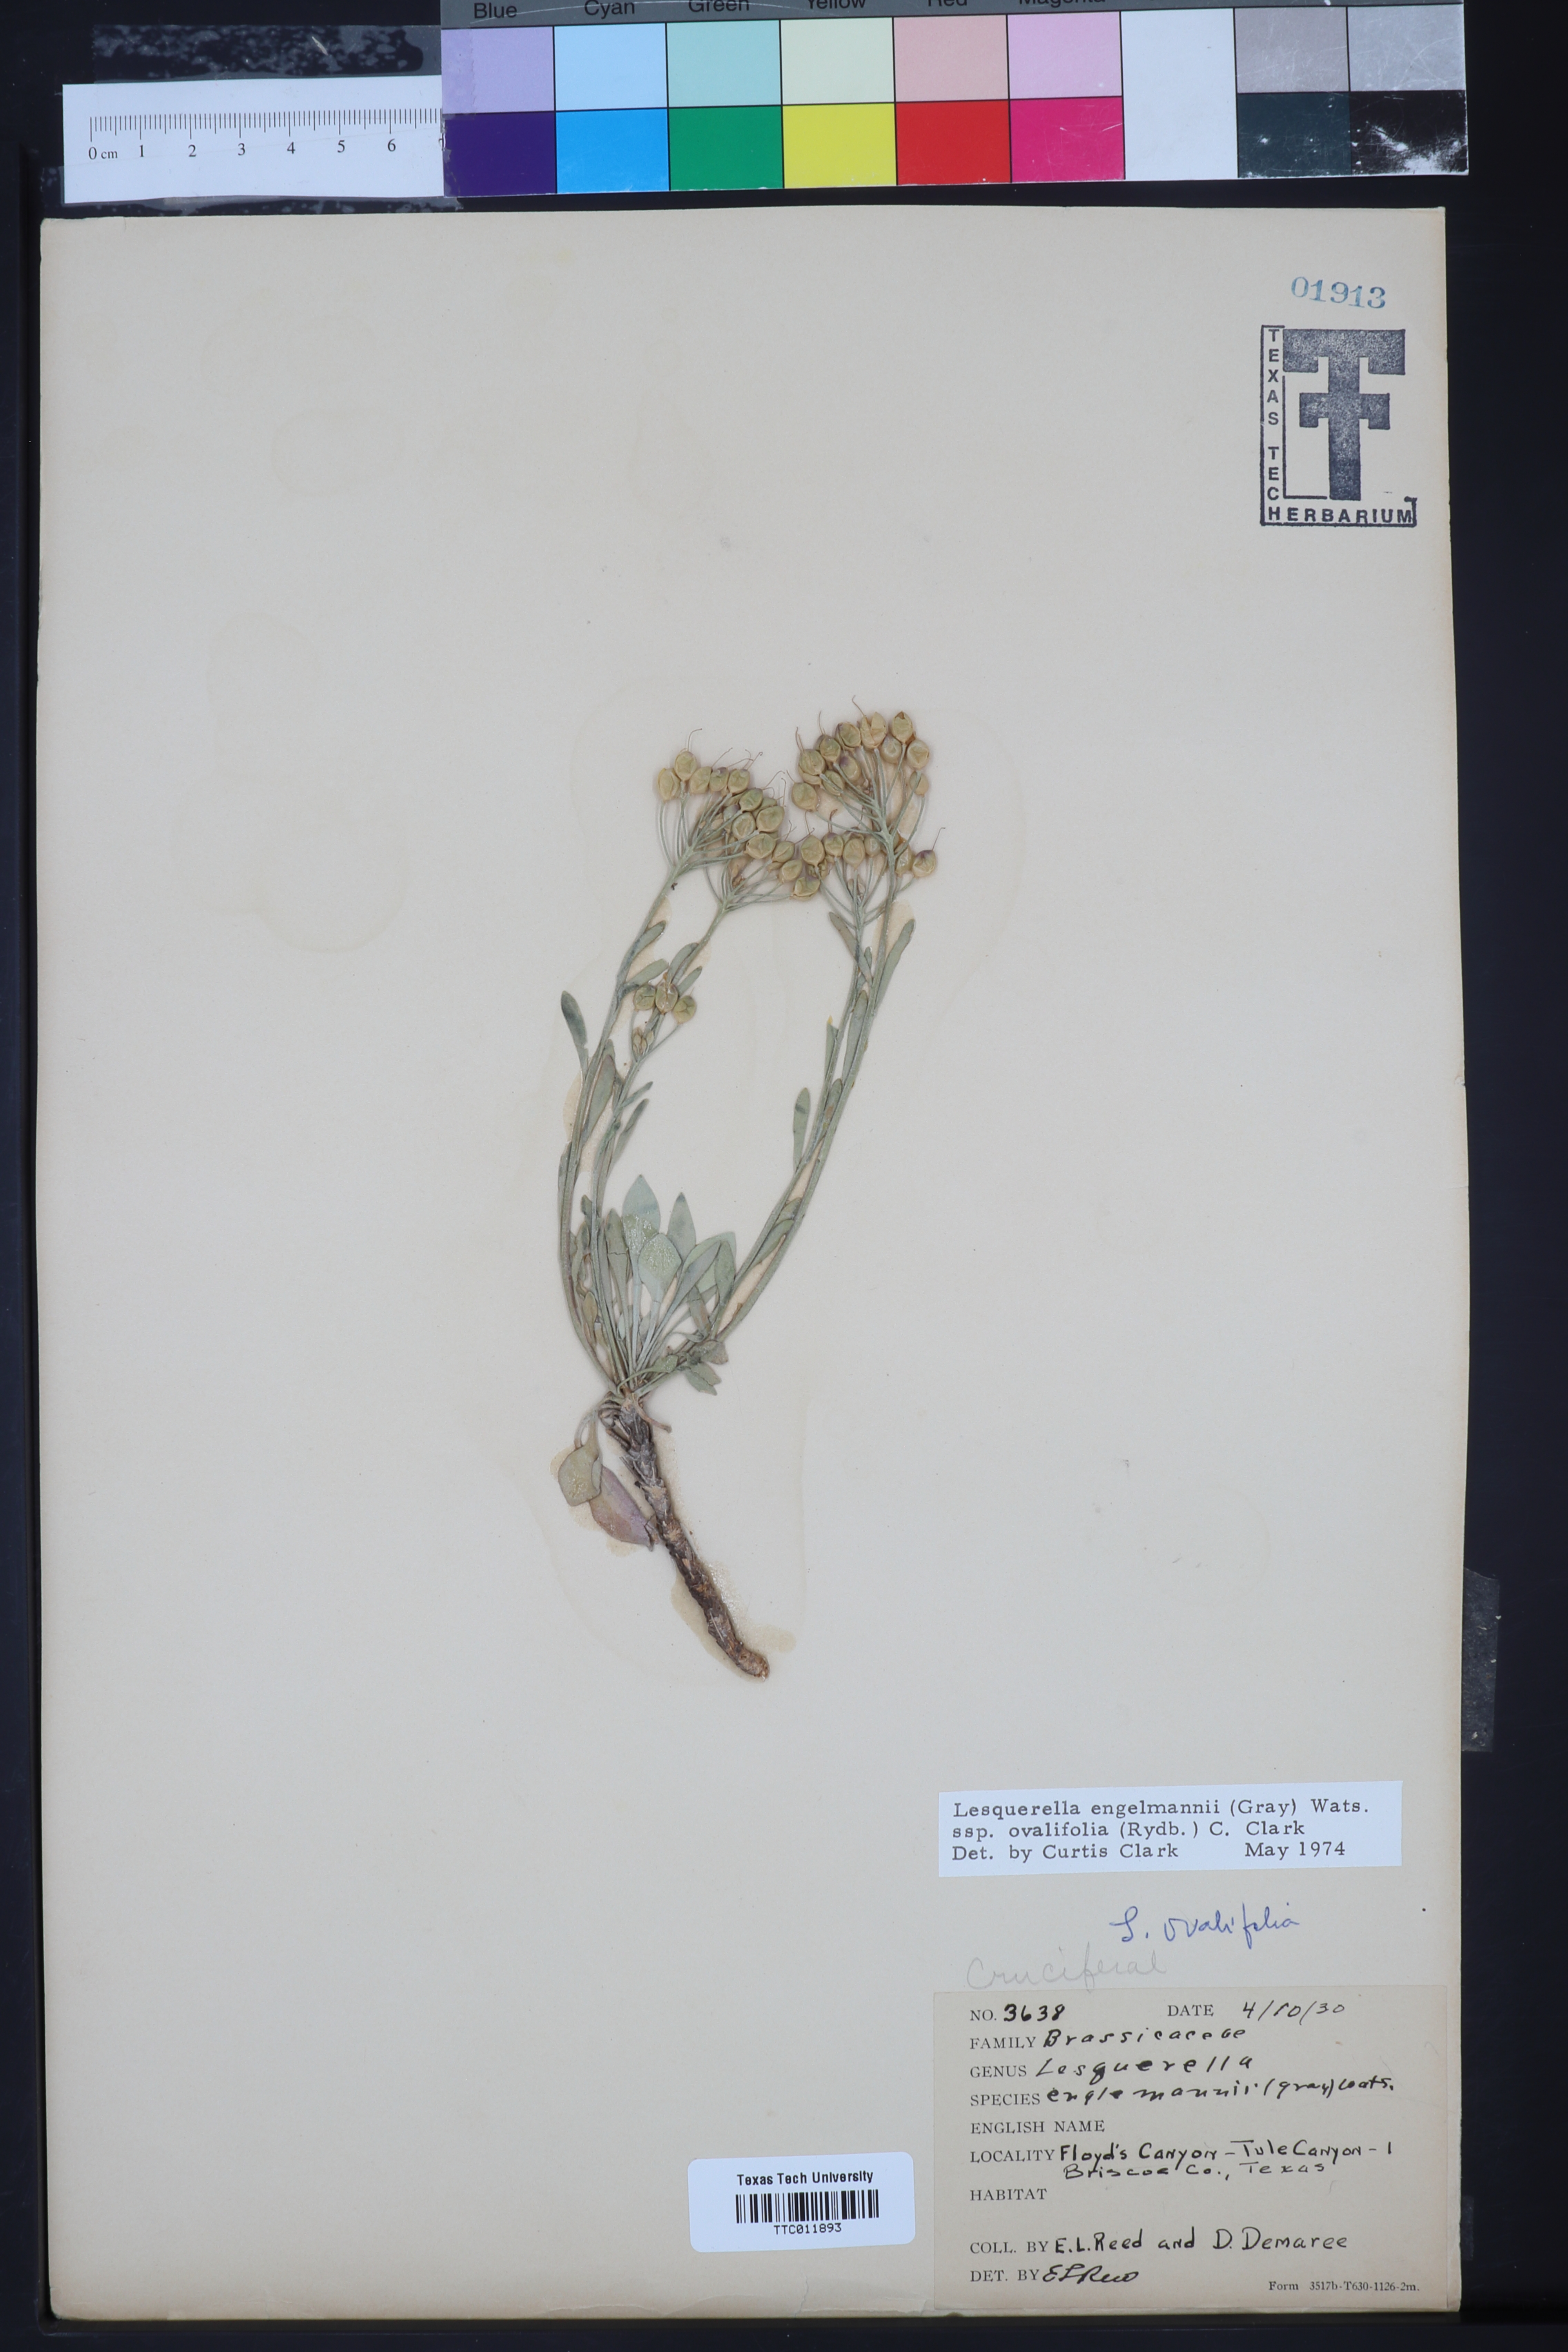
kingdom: Plantae
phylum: Tracheophyta
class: Magnoliopsida
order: Brassicales
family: Brassicaceae
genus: Physaria
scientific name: Physaria ovalifolia
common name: Round-leaf bladderpod
